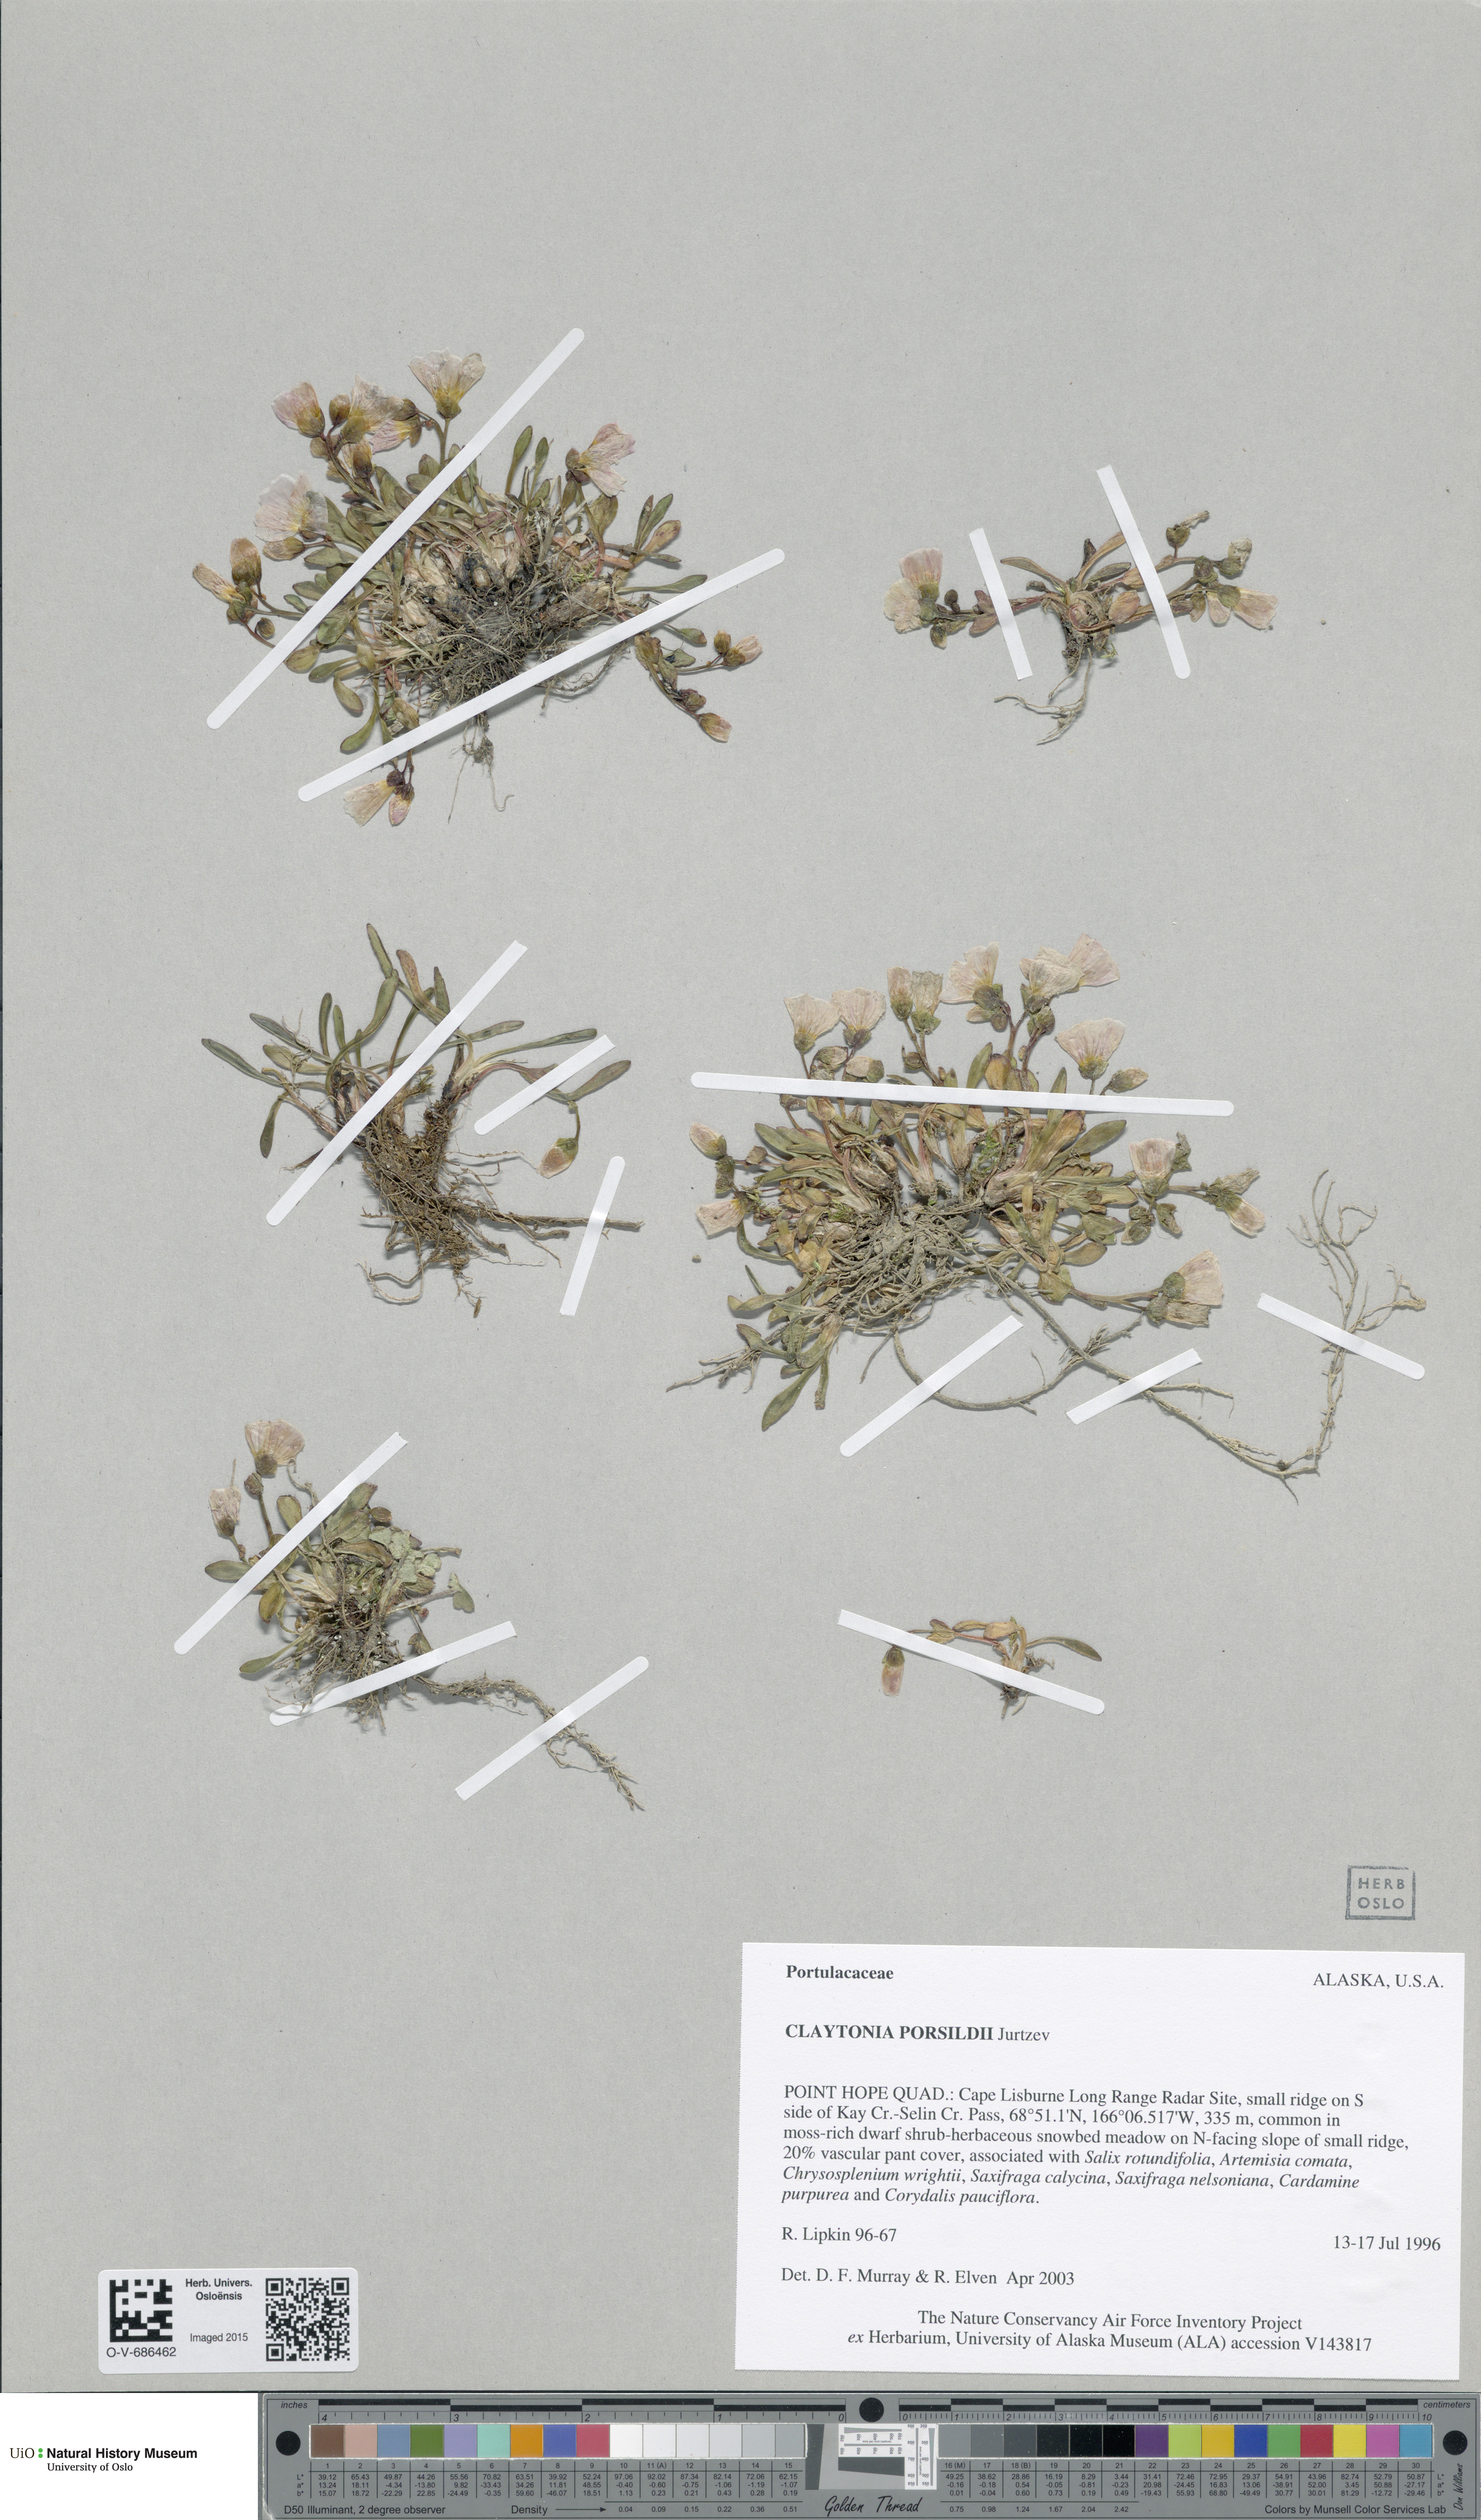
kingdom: Plantae
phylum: Tracheophyta
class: Magnoliopsida
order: Caryophyllales
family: Montiaceae
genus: Claytonia
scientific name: Claytonia scammaniana
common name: Scamman's claytonia
